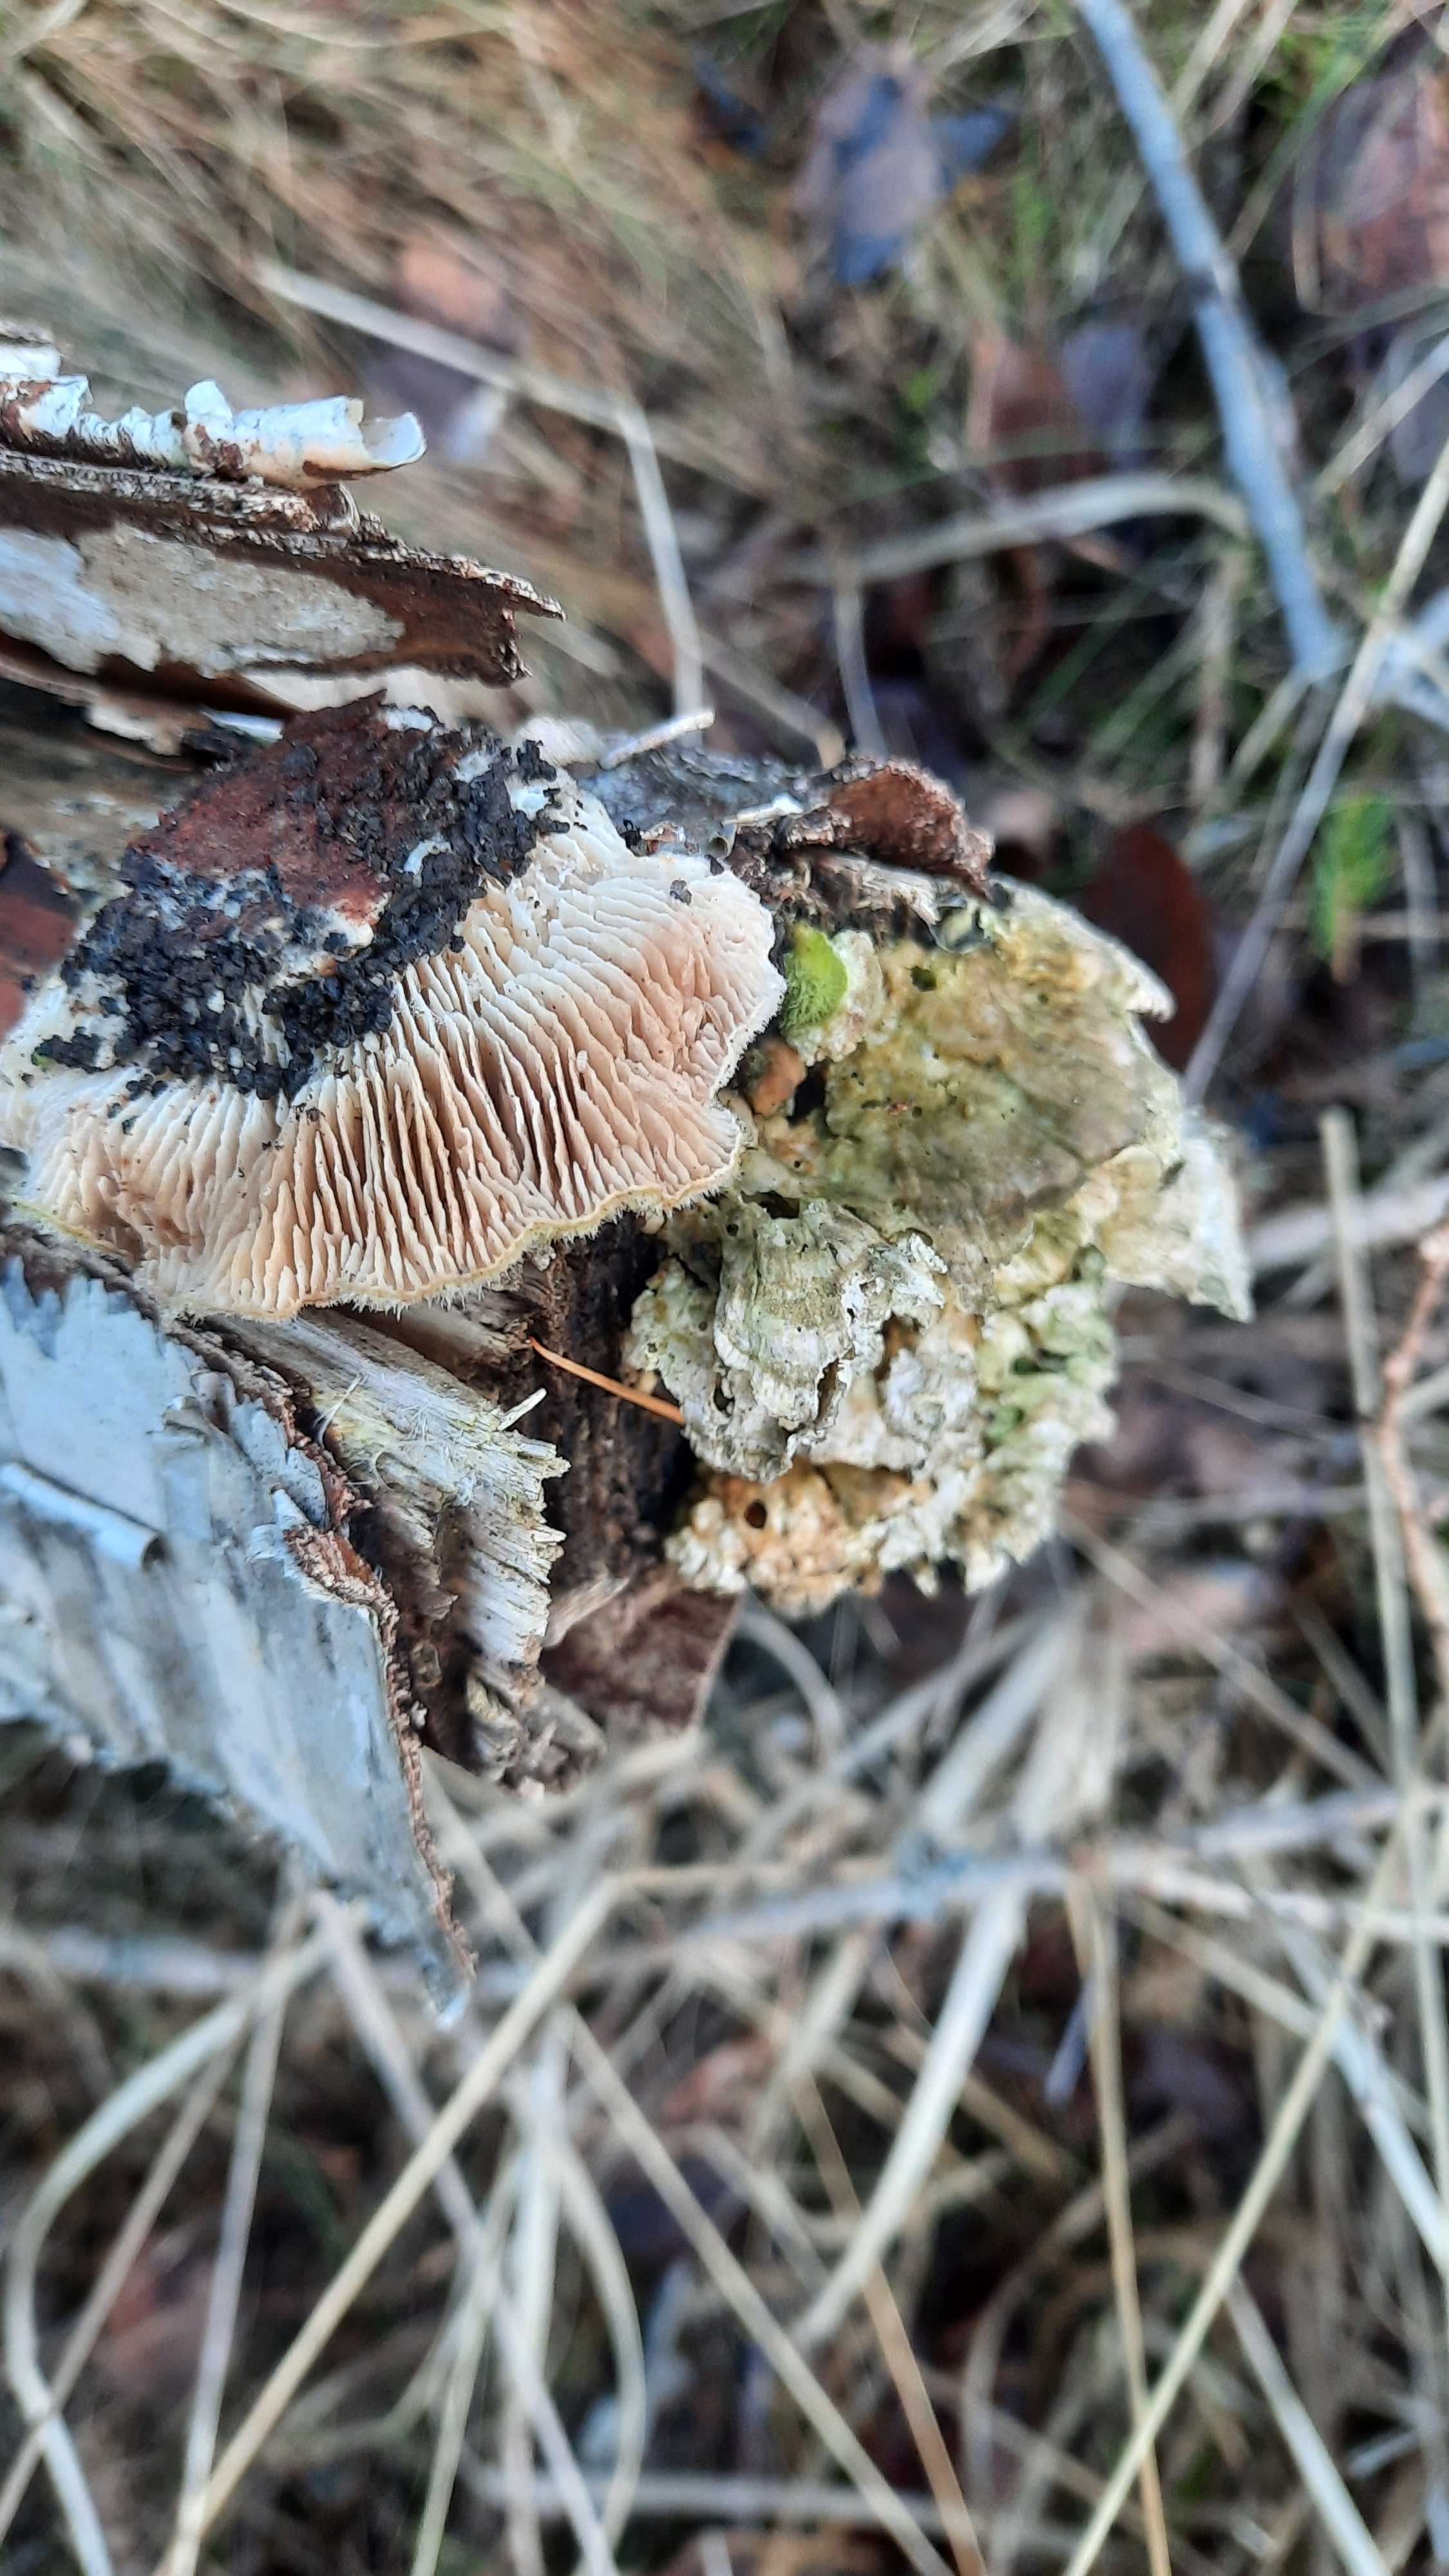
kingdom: Fungi
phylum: Basidiomycota
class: Agaricomycetes
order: Polyporales
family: Polyporaceae
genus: Lenzites
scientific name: Lenzites betulinus
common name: birke-læderporesvamp
